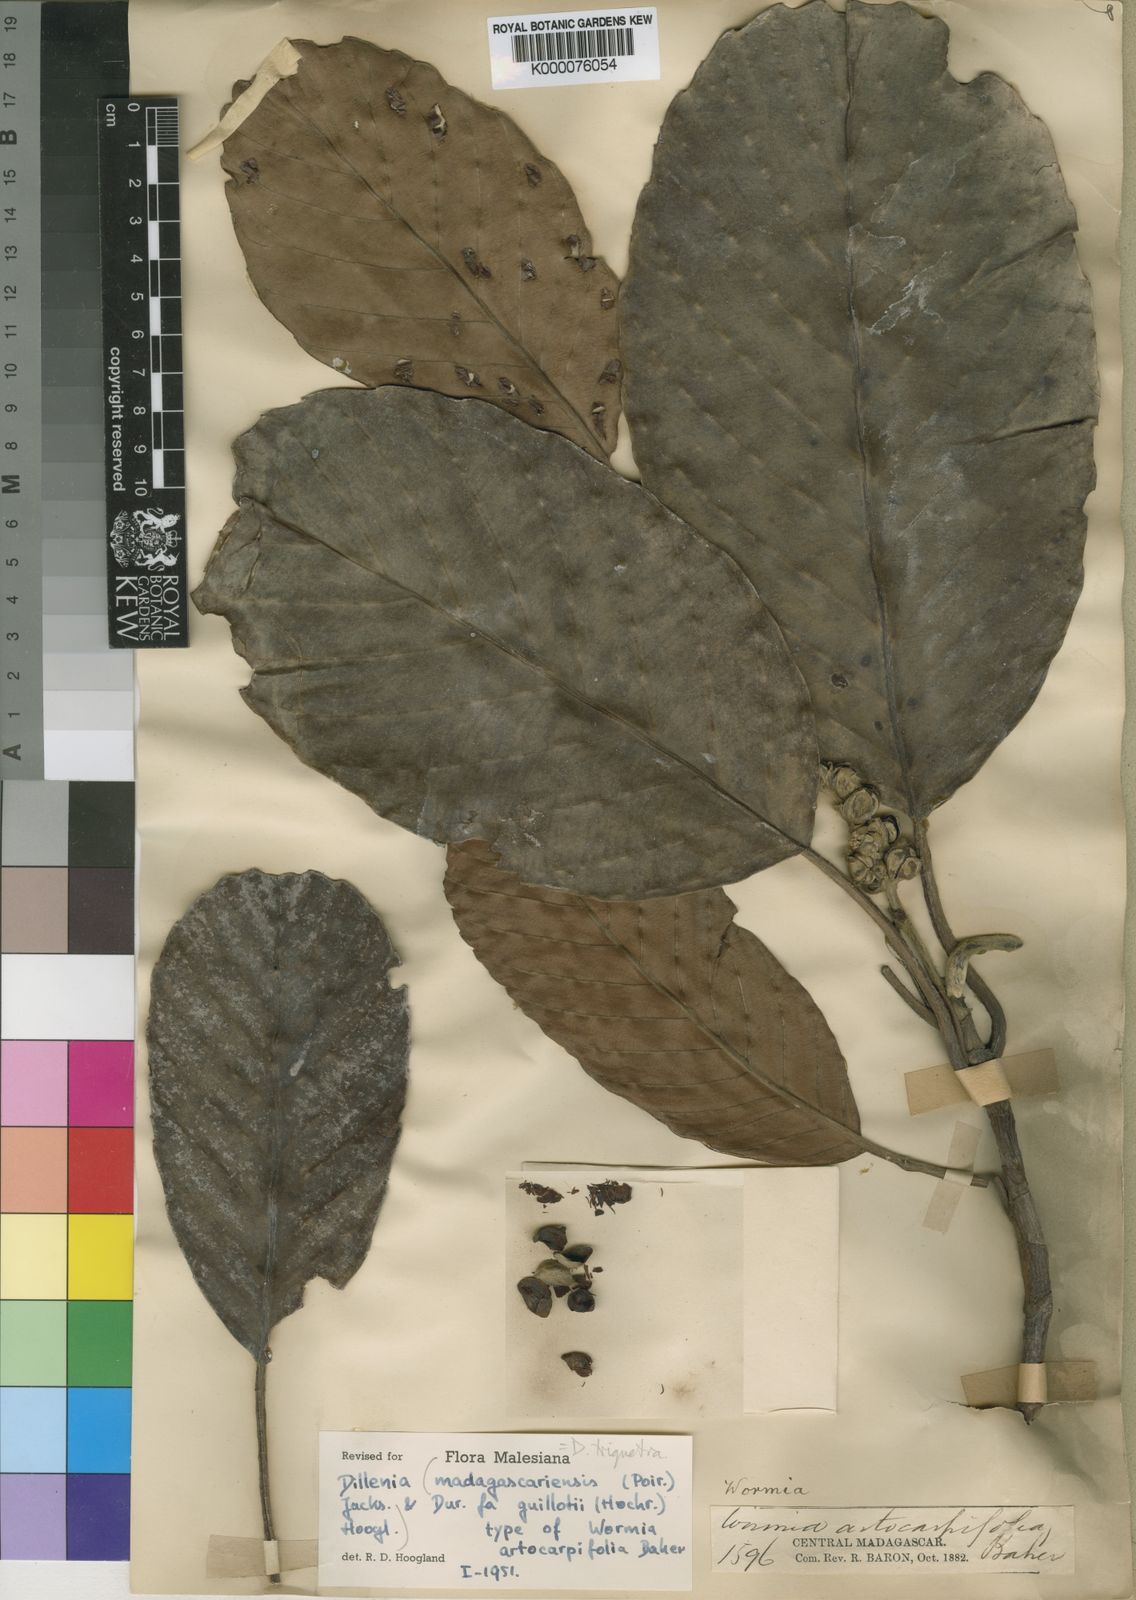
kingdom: Plantae
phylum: Tracheophyta
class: Magnoliopsida
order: Dilleniales
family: Dilleniaceae
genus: Dillenia
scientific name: Dillenia triquetra
